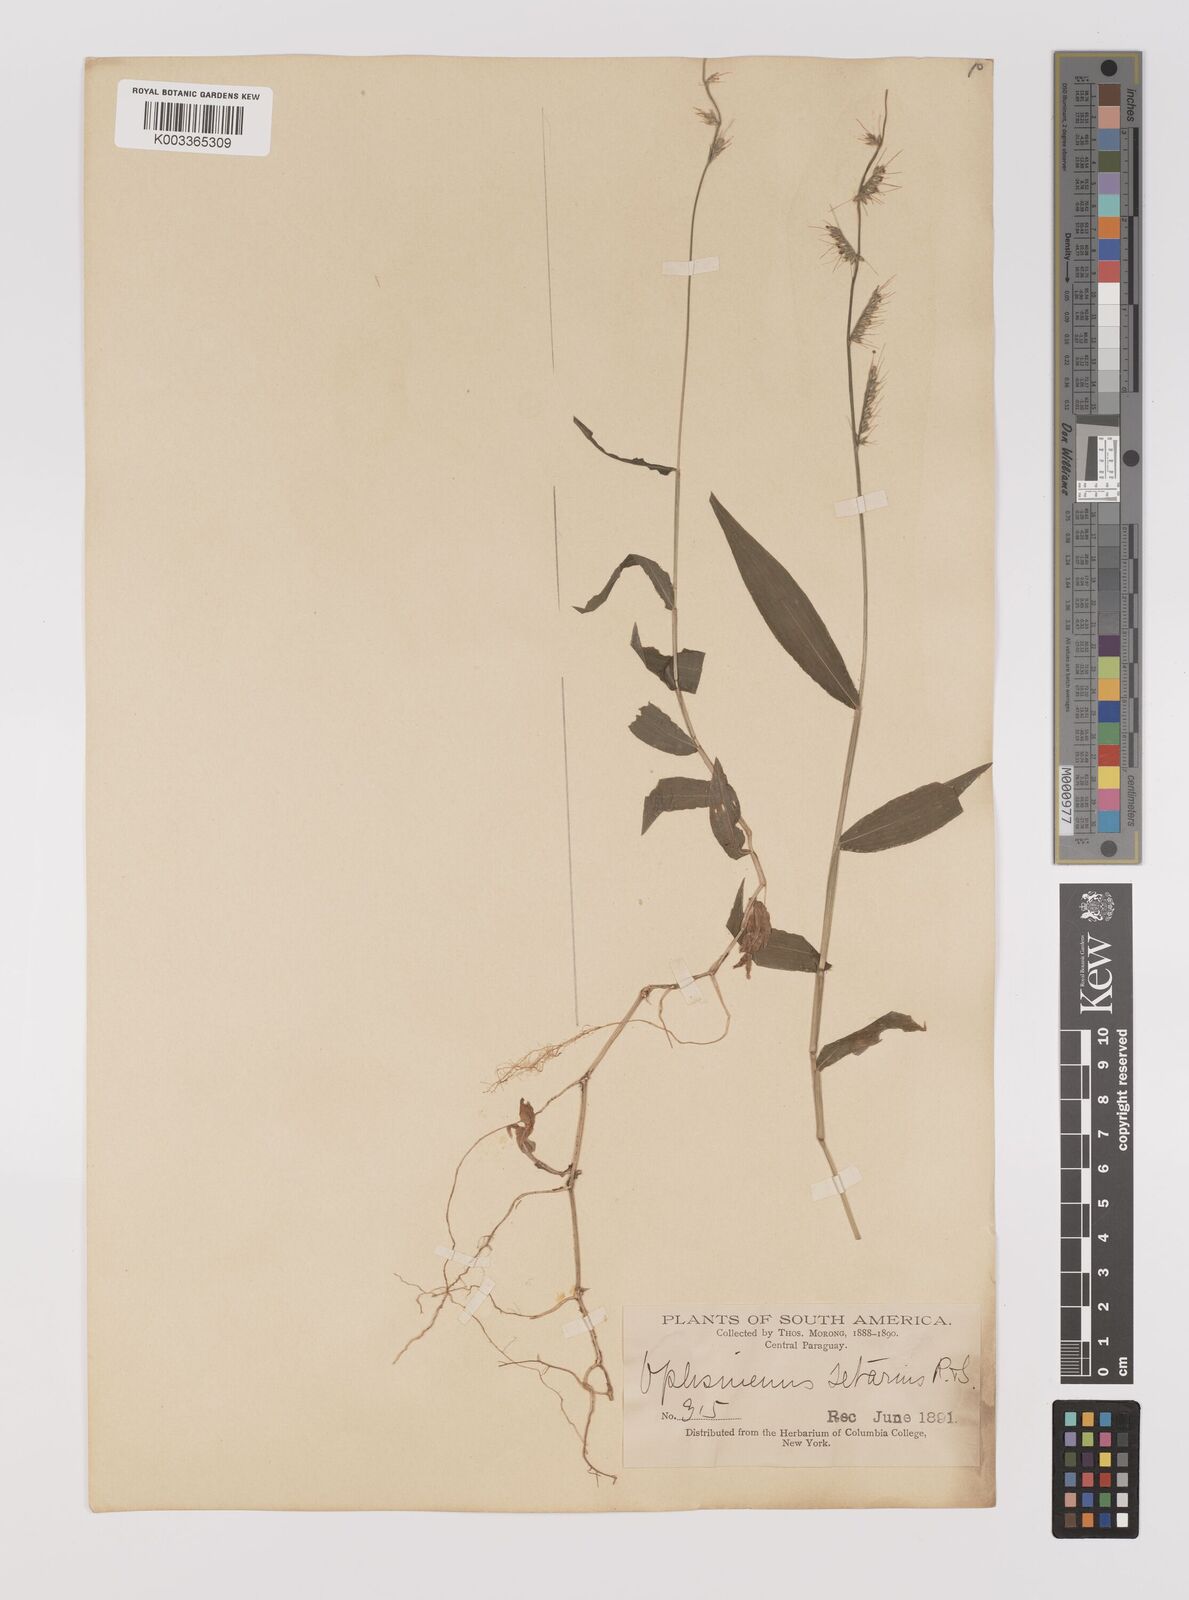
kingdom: Plantae
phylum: Tracheophyta
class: Liliopsida
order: Poales
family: Poaceae
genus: Oplismenus
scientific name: Oplismenus hirtellus
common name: Basketgrass
